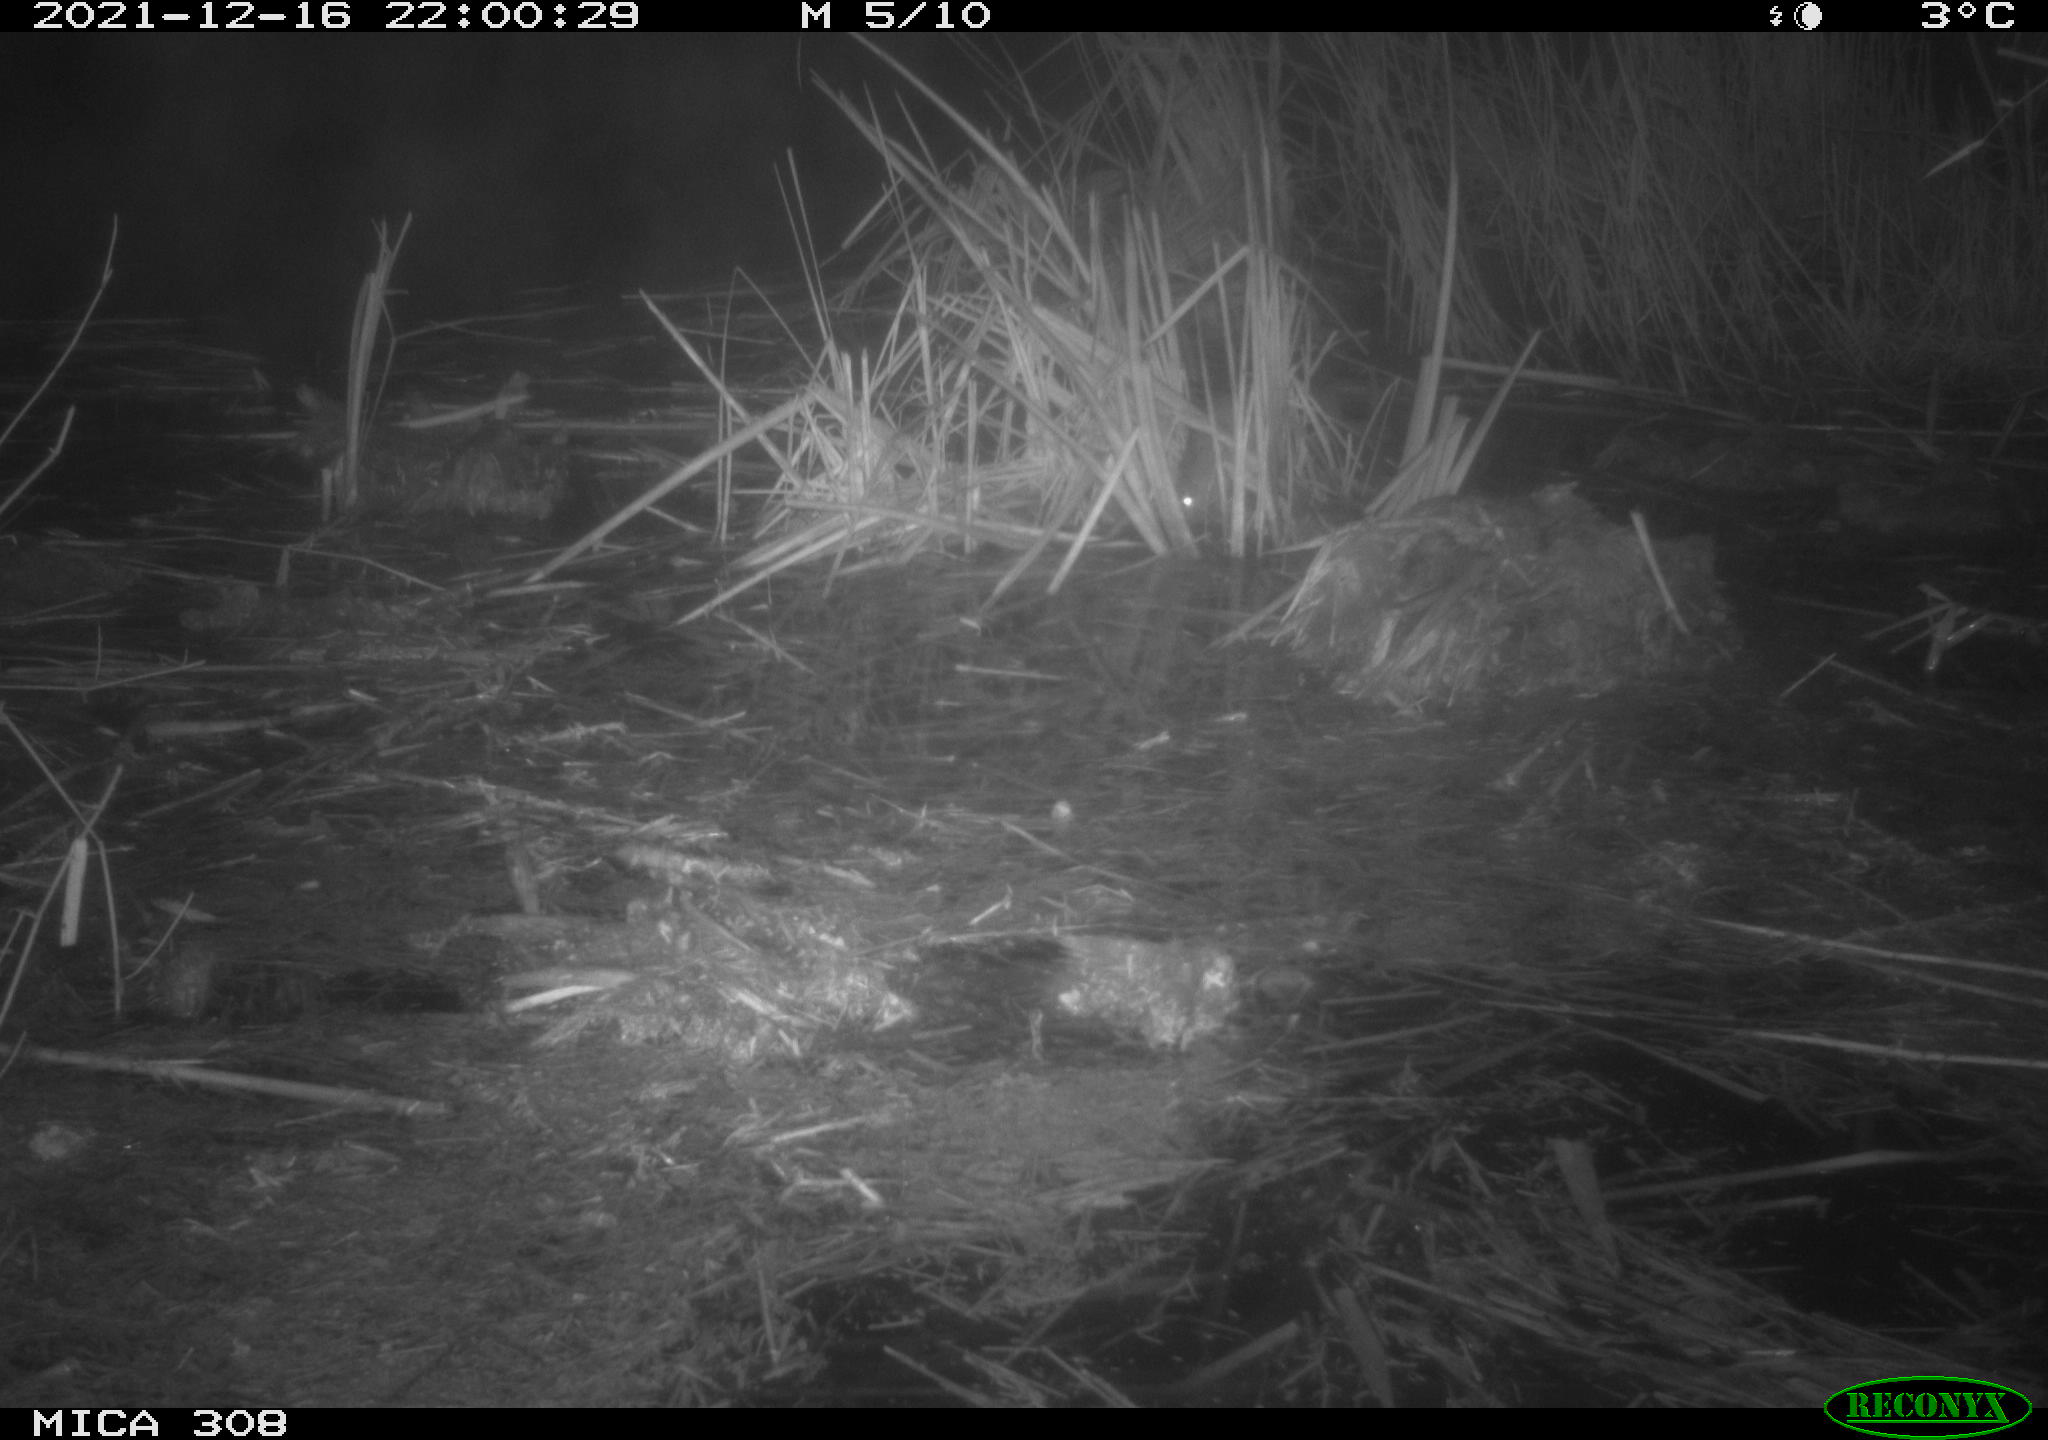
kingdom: Animalia
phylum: Chordata
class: Mammalia
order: Rodentia
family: Muridae
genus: Rattus
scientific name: Rattus norvegicus
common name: Brown rat
